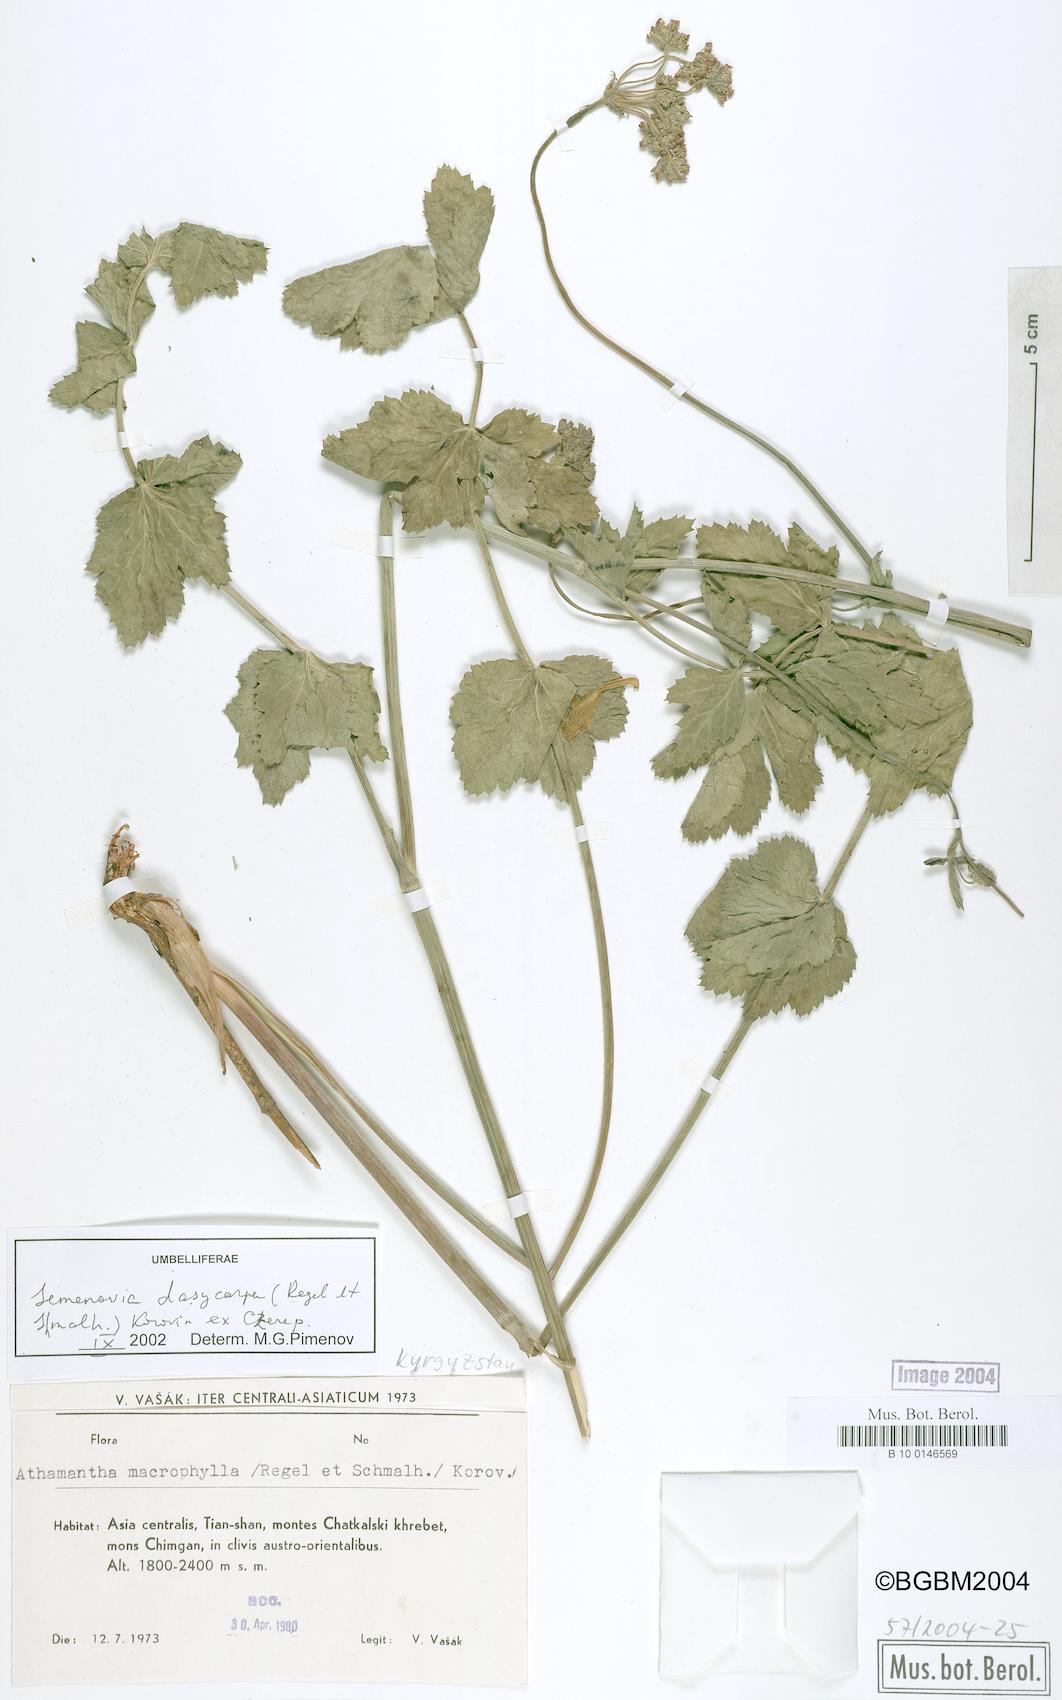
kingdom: Plantae
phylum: Tracheophyta
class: Magnoliopsida
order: Apiales
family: Apiaceae
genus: Semenovia
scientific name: Semenovia dasycarpa
